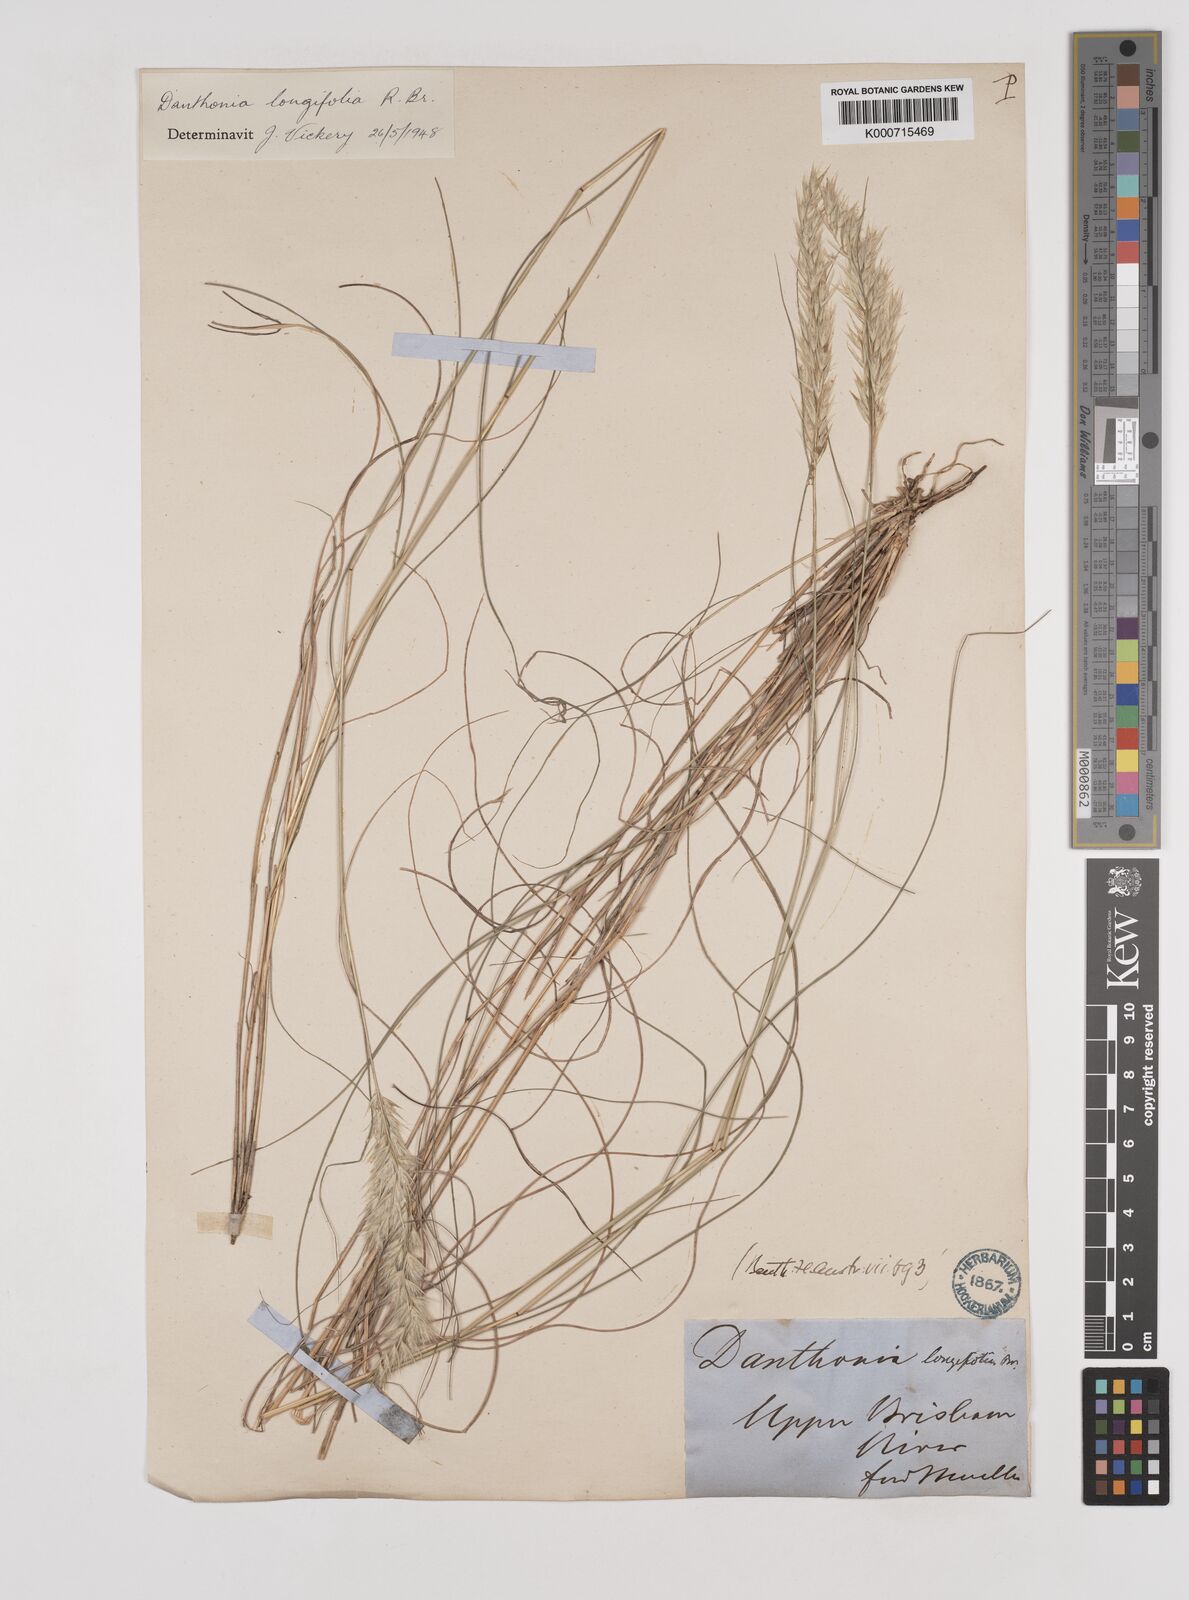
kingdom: Plantae
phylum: Tracheophyta
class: Liliopsida
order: Poales
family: Poaceae
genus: Rytidosperma
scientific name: Rytidosperma longifolium
